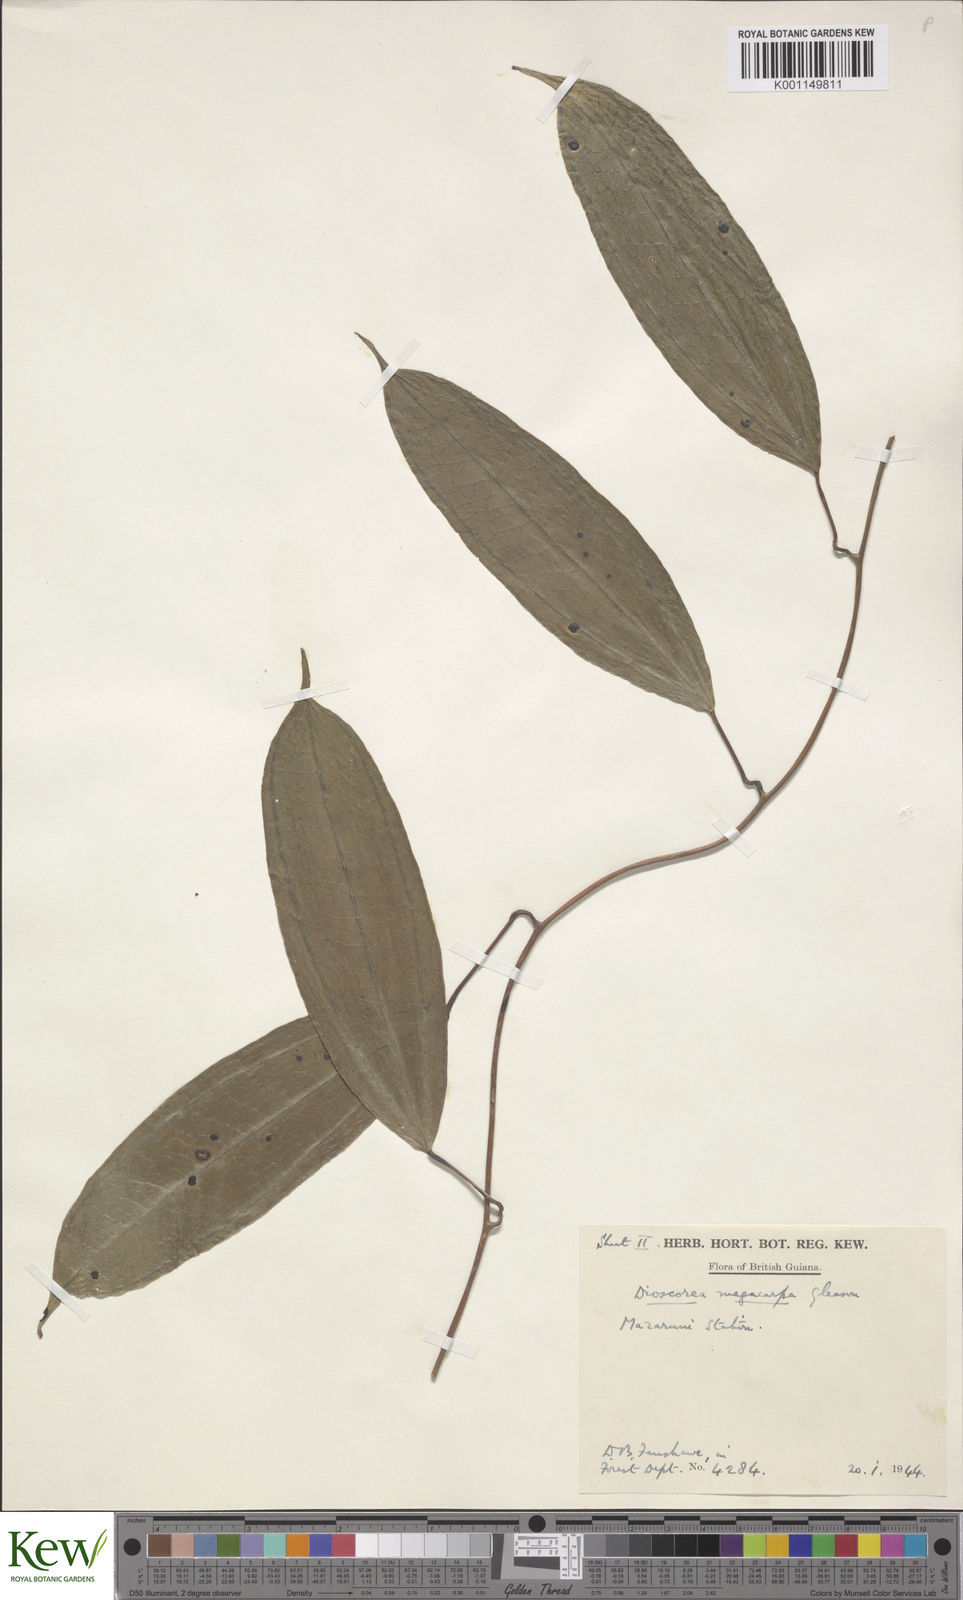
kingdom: Plantae
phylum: Tracheophyta
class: Liliopsida
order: Dioscoreales
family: Dioscoreaceae
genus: Dioscorea
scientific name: Dioscorea
